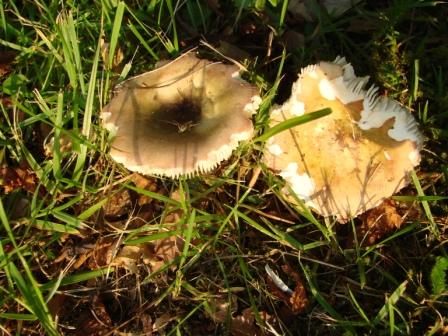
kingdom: Fungi
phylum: Basidiomycota
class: Agaricomycetes
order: Russulales
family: Russulaceae
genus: Russula
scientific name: Russula versicolor
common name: foranderlig skørhat
